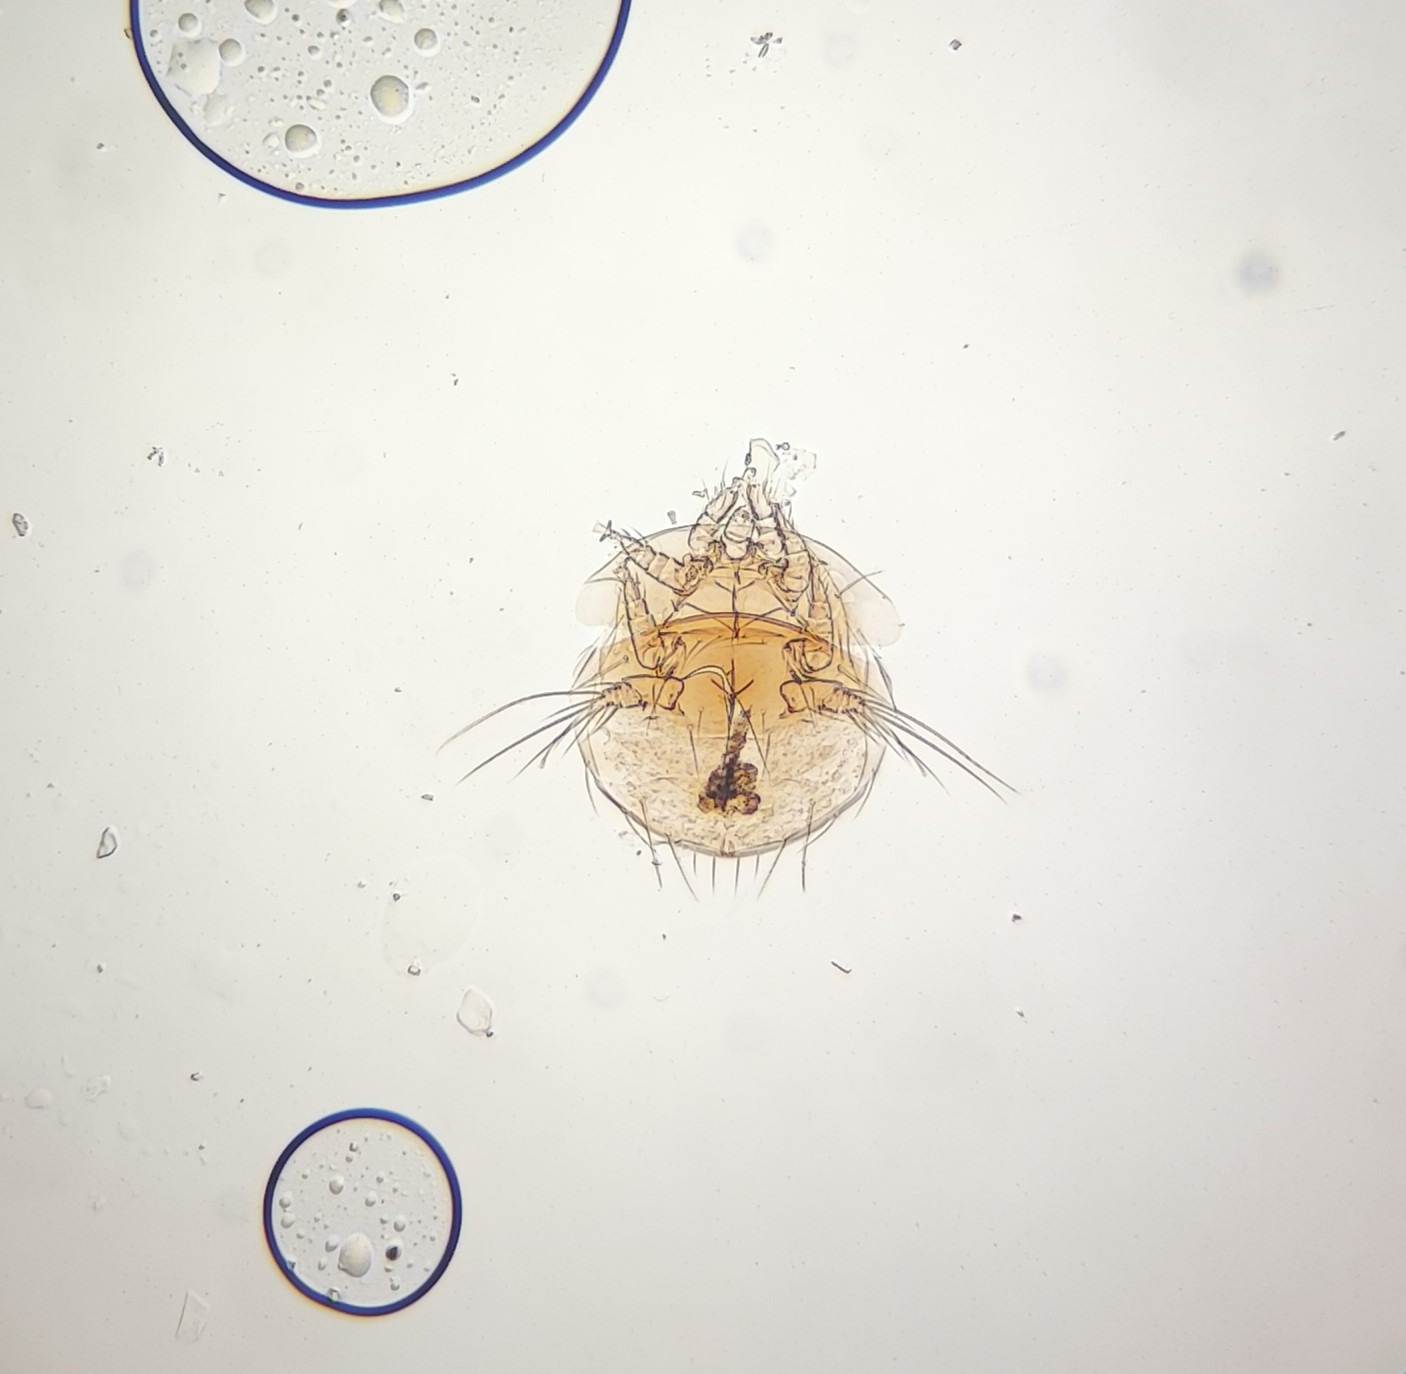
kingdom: Animalia
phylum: Arthropoda
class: Arachnida
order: Trombidiformes
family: Scutacaridae
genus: Lophodispus
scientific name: Lophodispus irregularis
